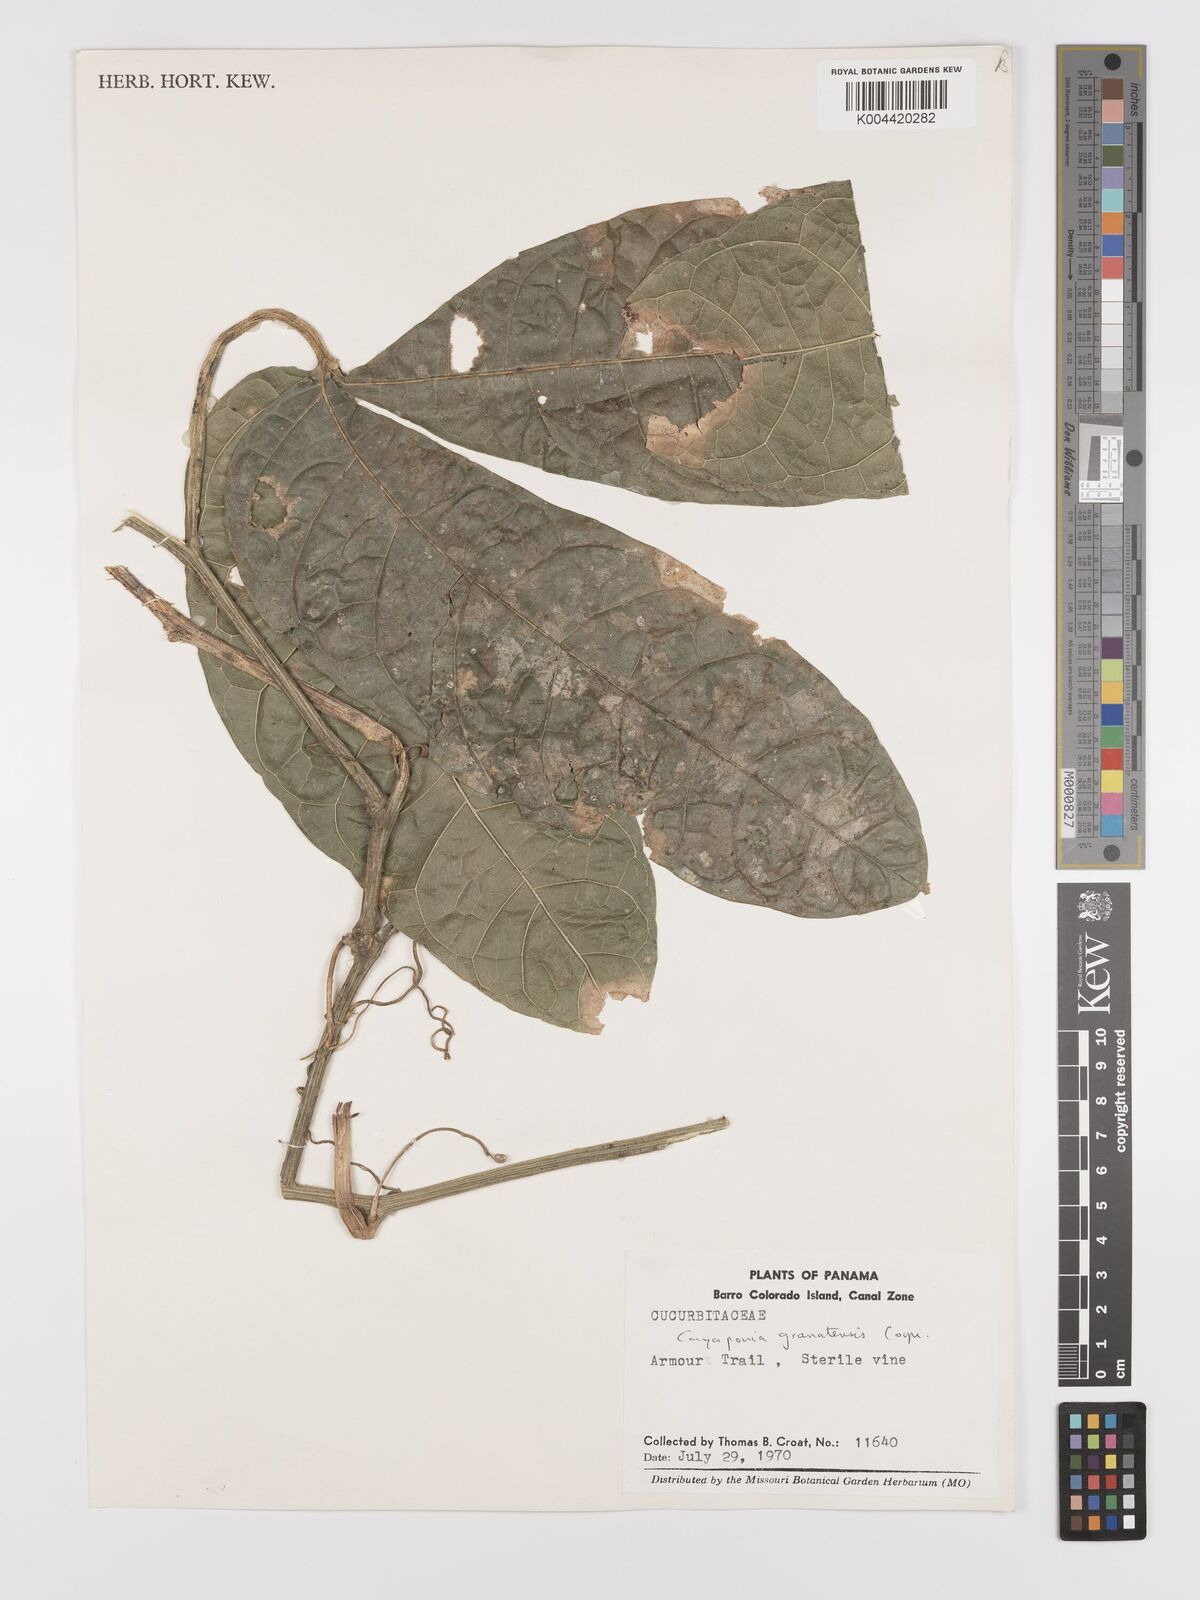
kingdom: Plantae
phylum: Tracheophyta
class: Magnoliopsida
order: Cucurbitales
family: Cucurbitaceae
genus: Cayaponia
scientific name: Cayaponia granatensis
